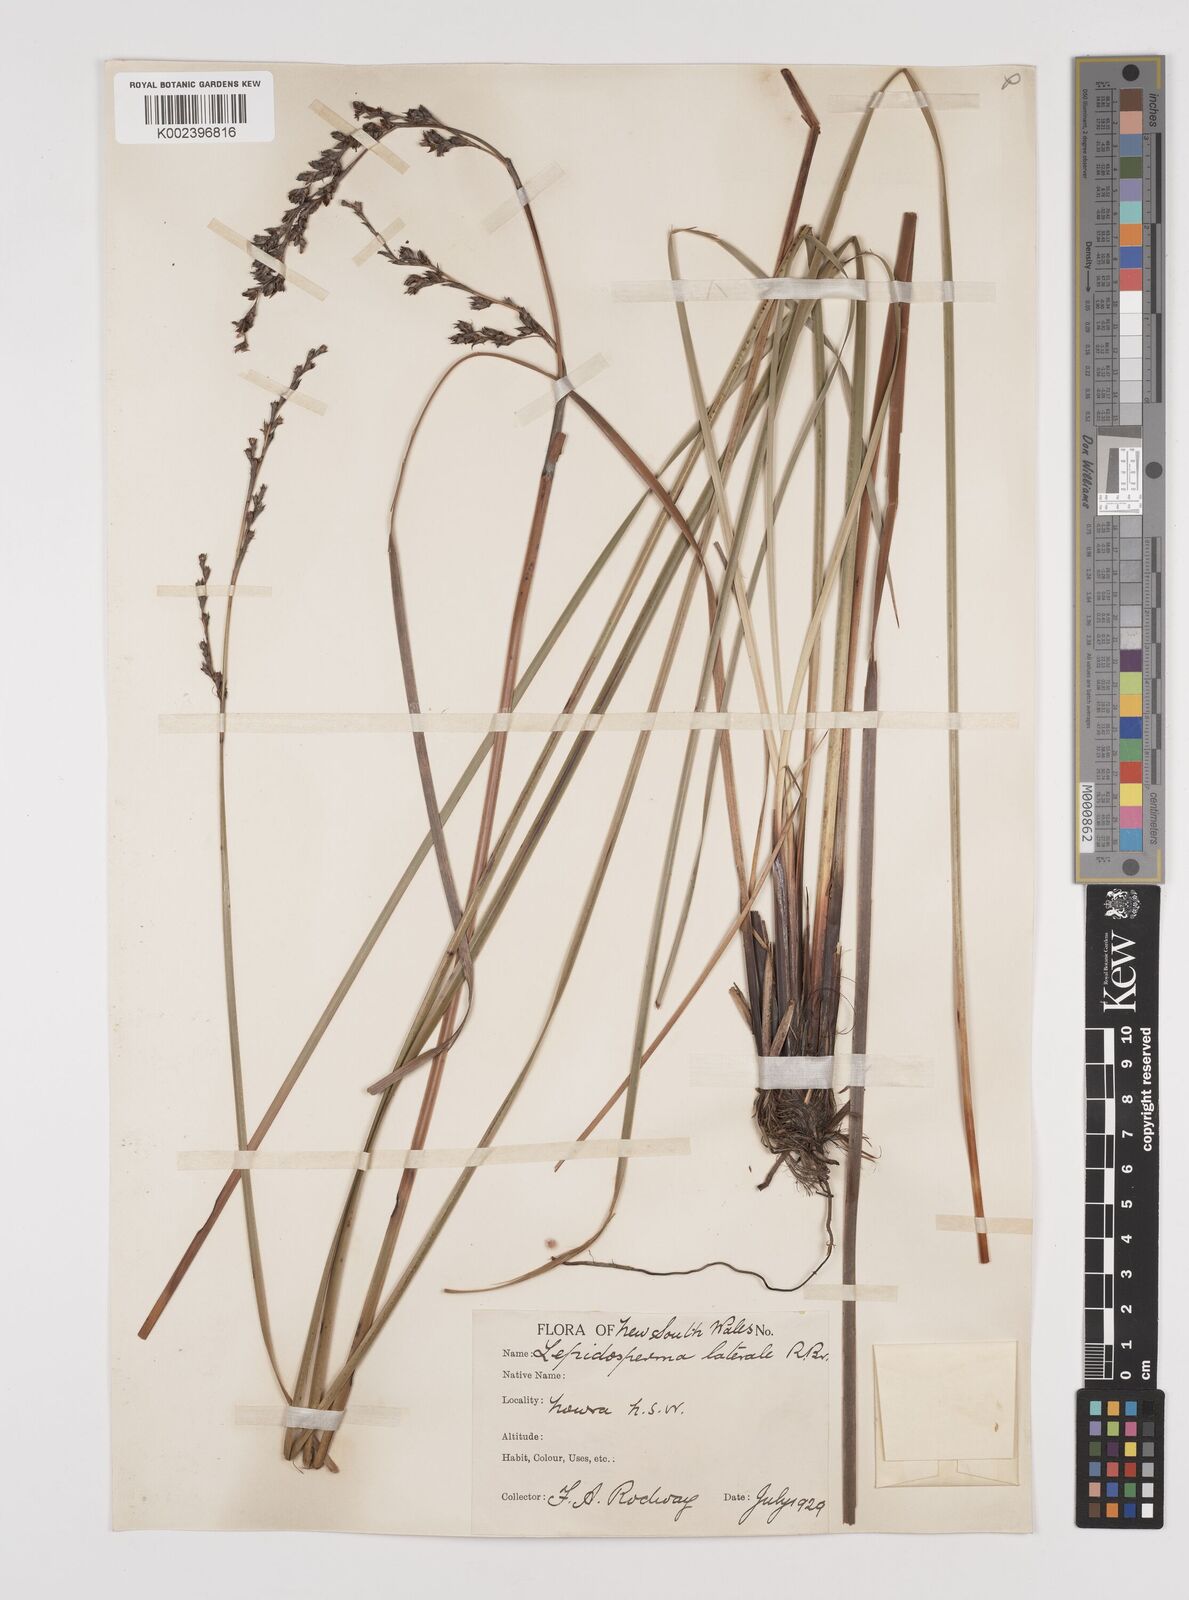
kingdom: Plantae
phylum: Tracheophyta
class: Liliopsida
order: Poales
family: Cyperaceae
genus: Lepidosperma
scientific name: Lepidosperma laterale
